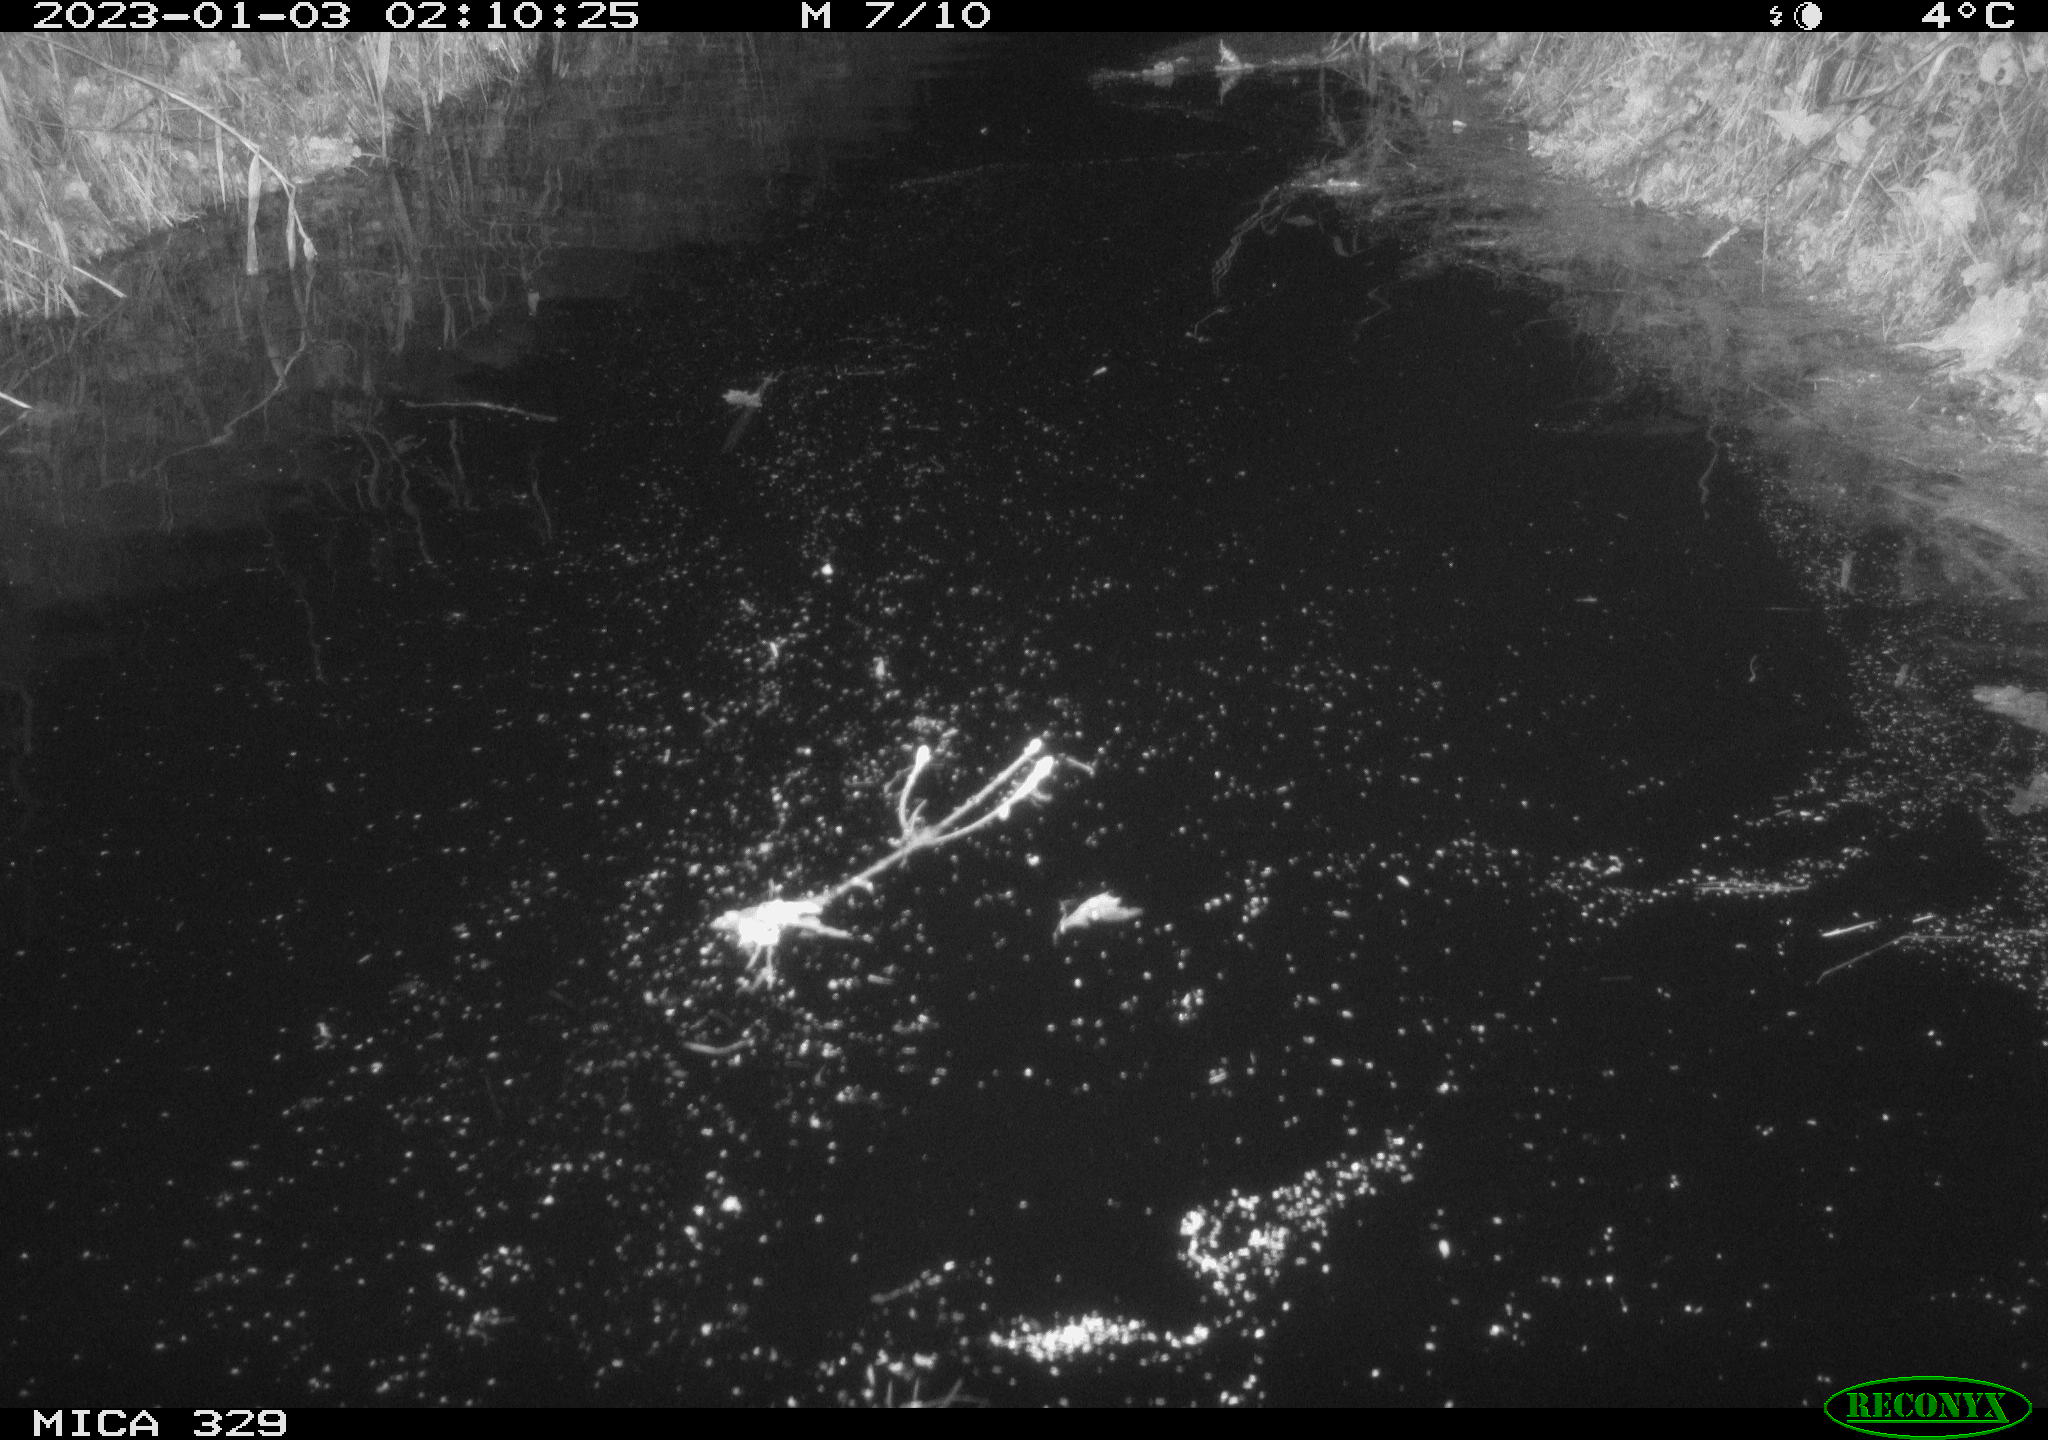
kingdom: Animalia
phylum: Chordata
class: Mammalia
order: Rodentia
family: Cricetidae
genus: Ondatra
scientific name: Ondatra zibethicus
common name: Muskrat
